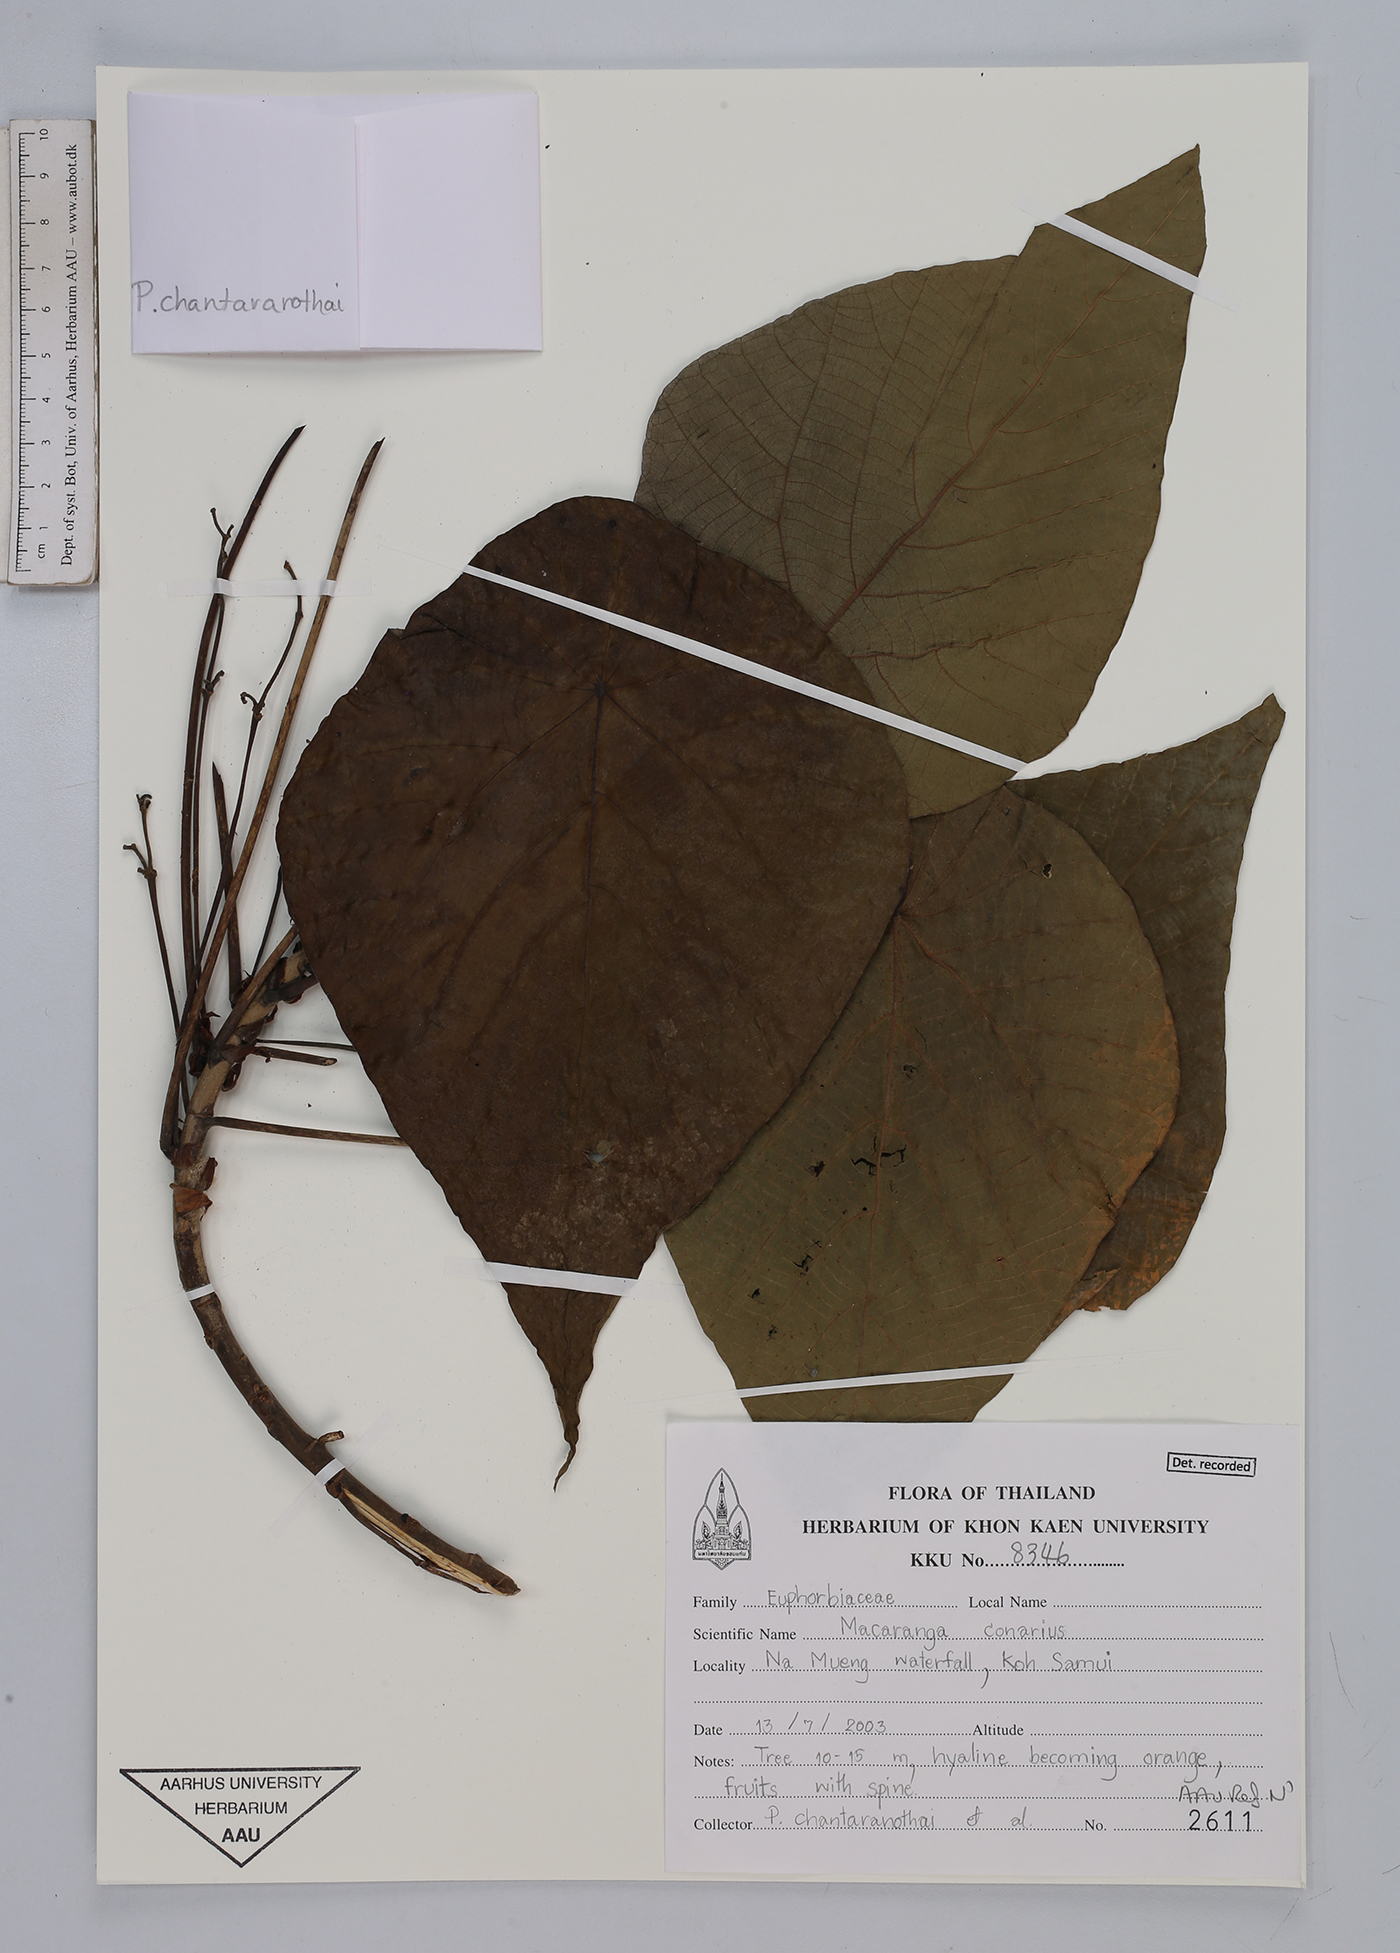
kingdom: Plantae
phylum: Tracheophyta
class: Magnoliopsida
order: Malpighiales
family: Euphorbiaceae
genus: Macaranga
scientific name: Macaranga
